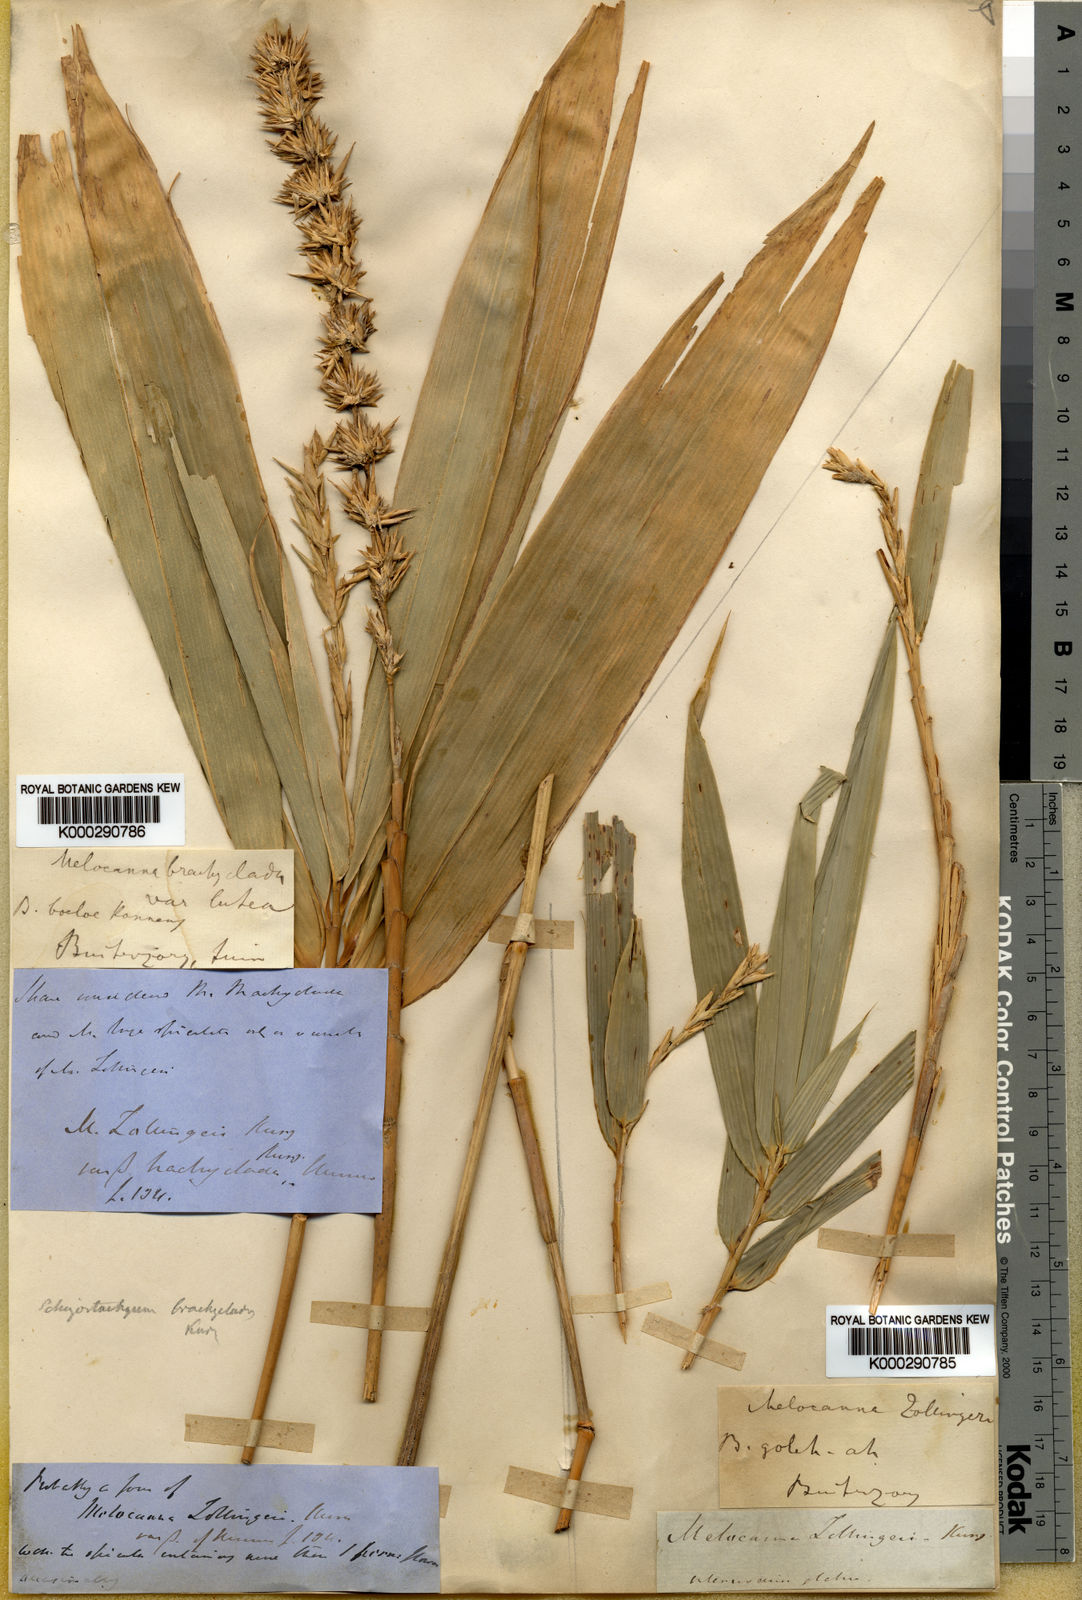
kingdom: Plantae
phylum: Tracheophyta
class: Liliopsida
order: Poales
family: Poaceae
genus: Schizostachyum
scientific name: Schizostachyum brachycladum
